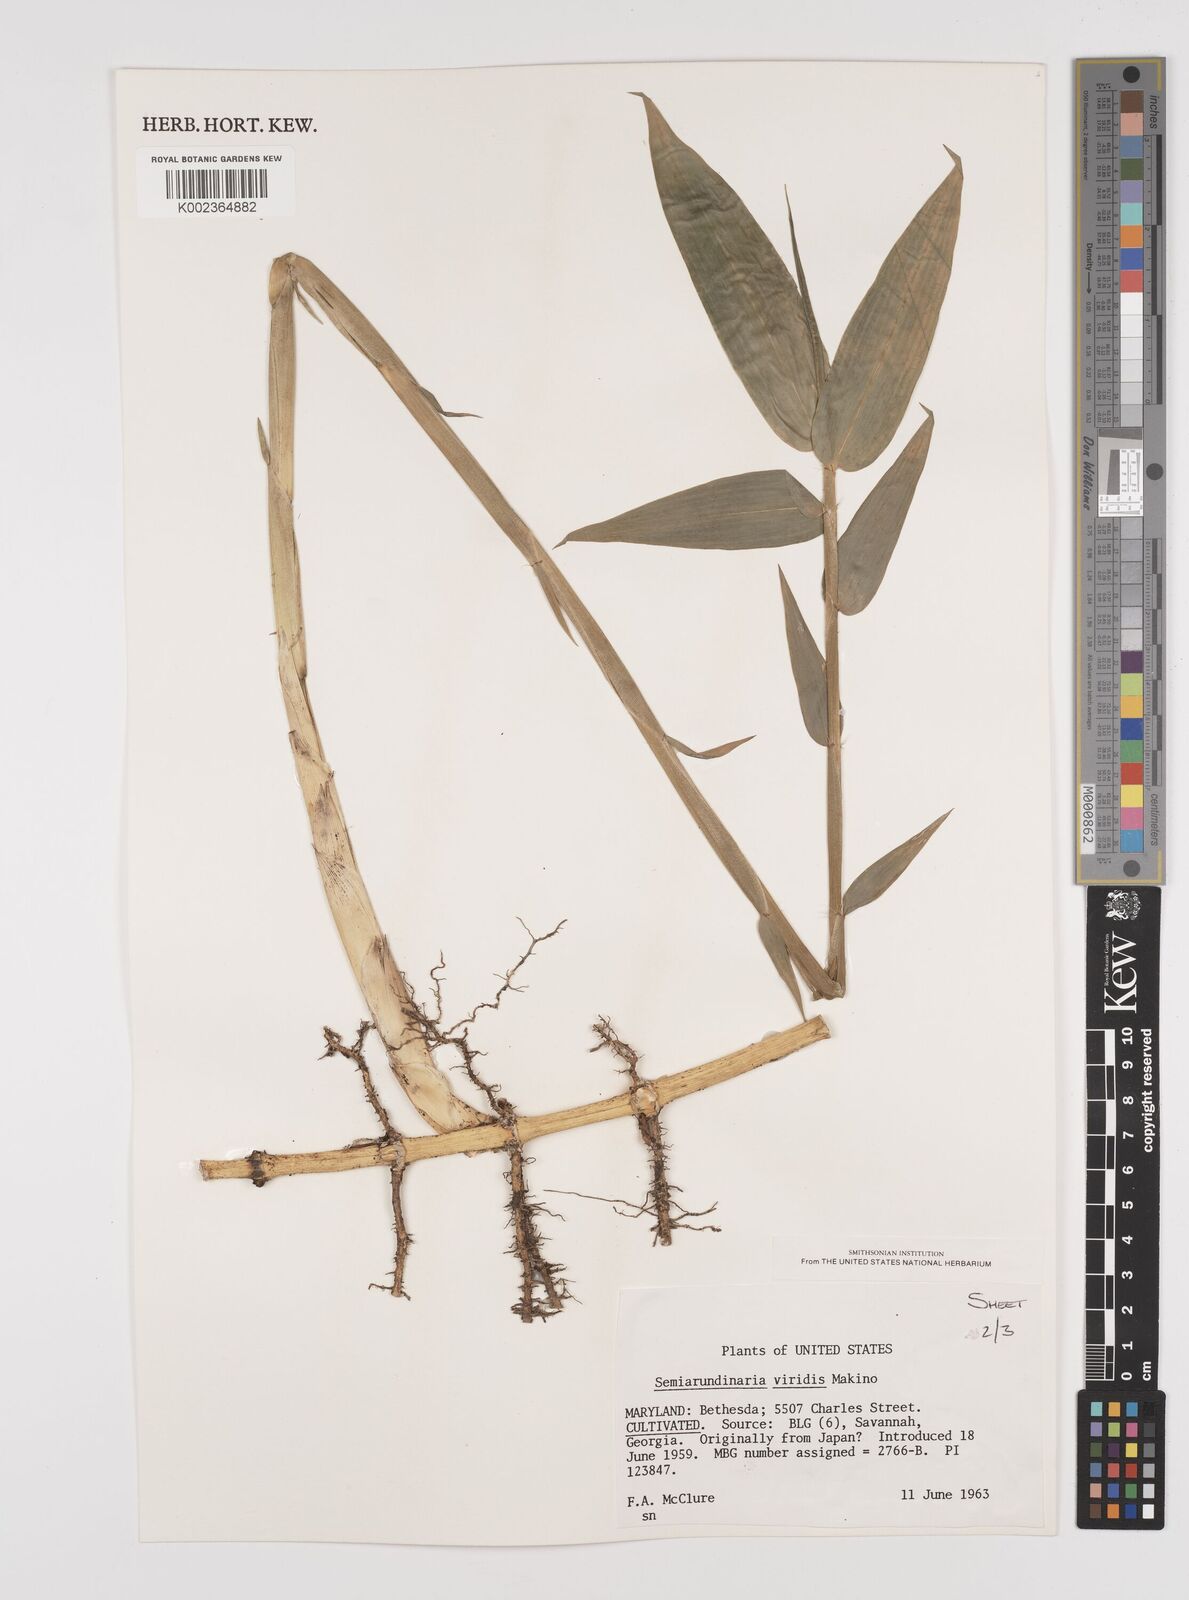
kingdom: Plantae
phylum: Tracheophyta
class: Liliopsida
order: Poales
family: Poaceae
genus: Semiarundinaria
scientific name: Semiarundinaria fastuosa
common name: Narihira bamboo
